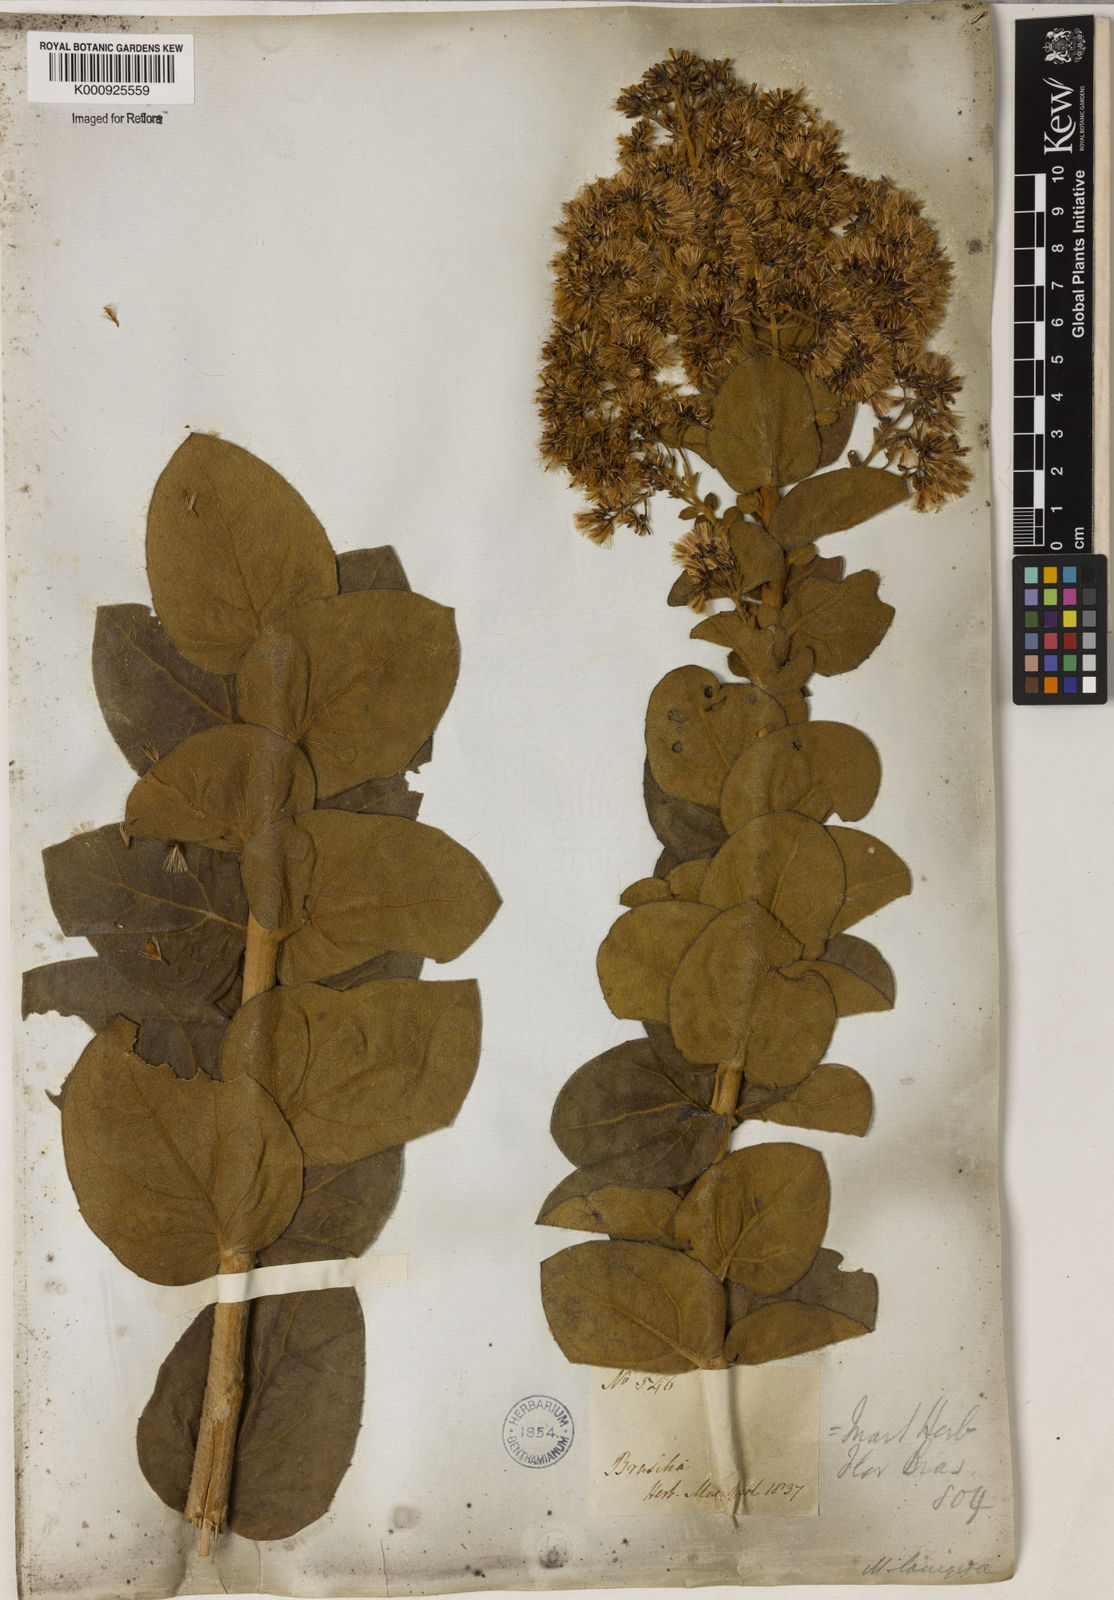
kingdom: Plantae
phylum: Tracheophyta
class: Magnoliopsida
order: Asterales
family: Asteraceae
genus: Mikania
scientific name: Mikania leiolaena
